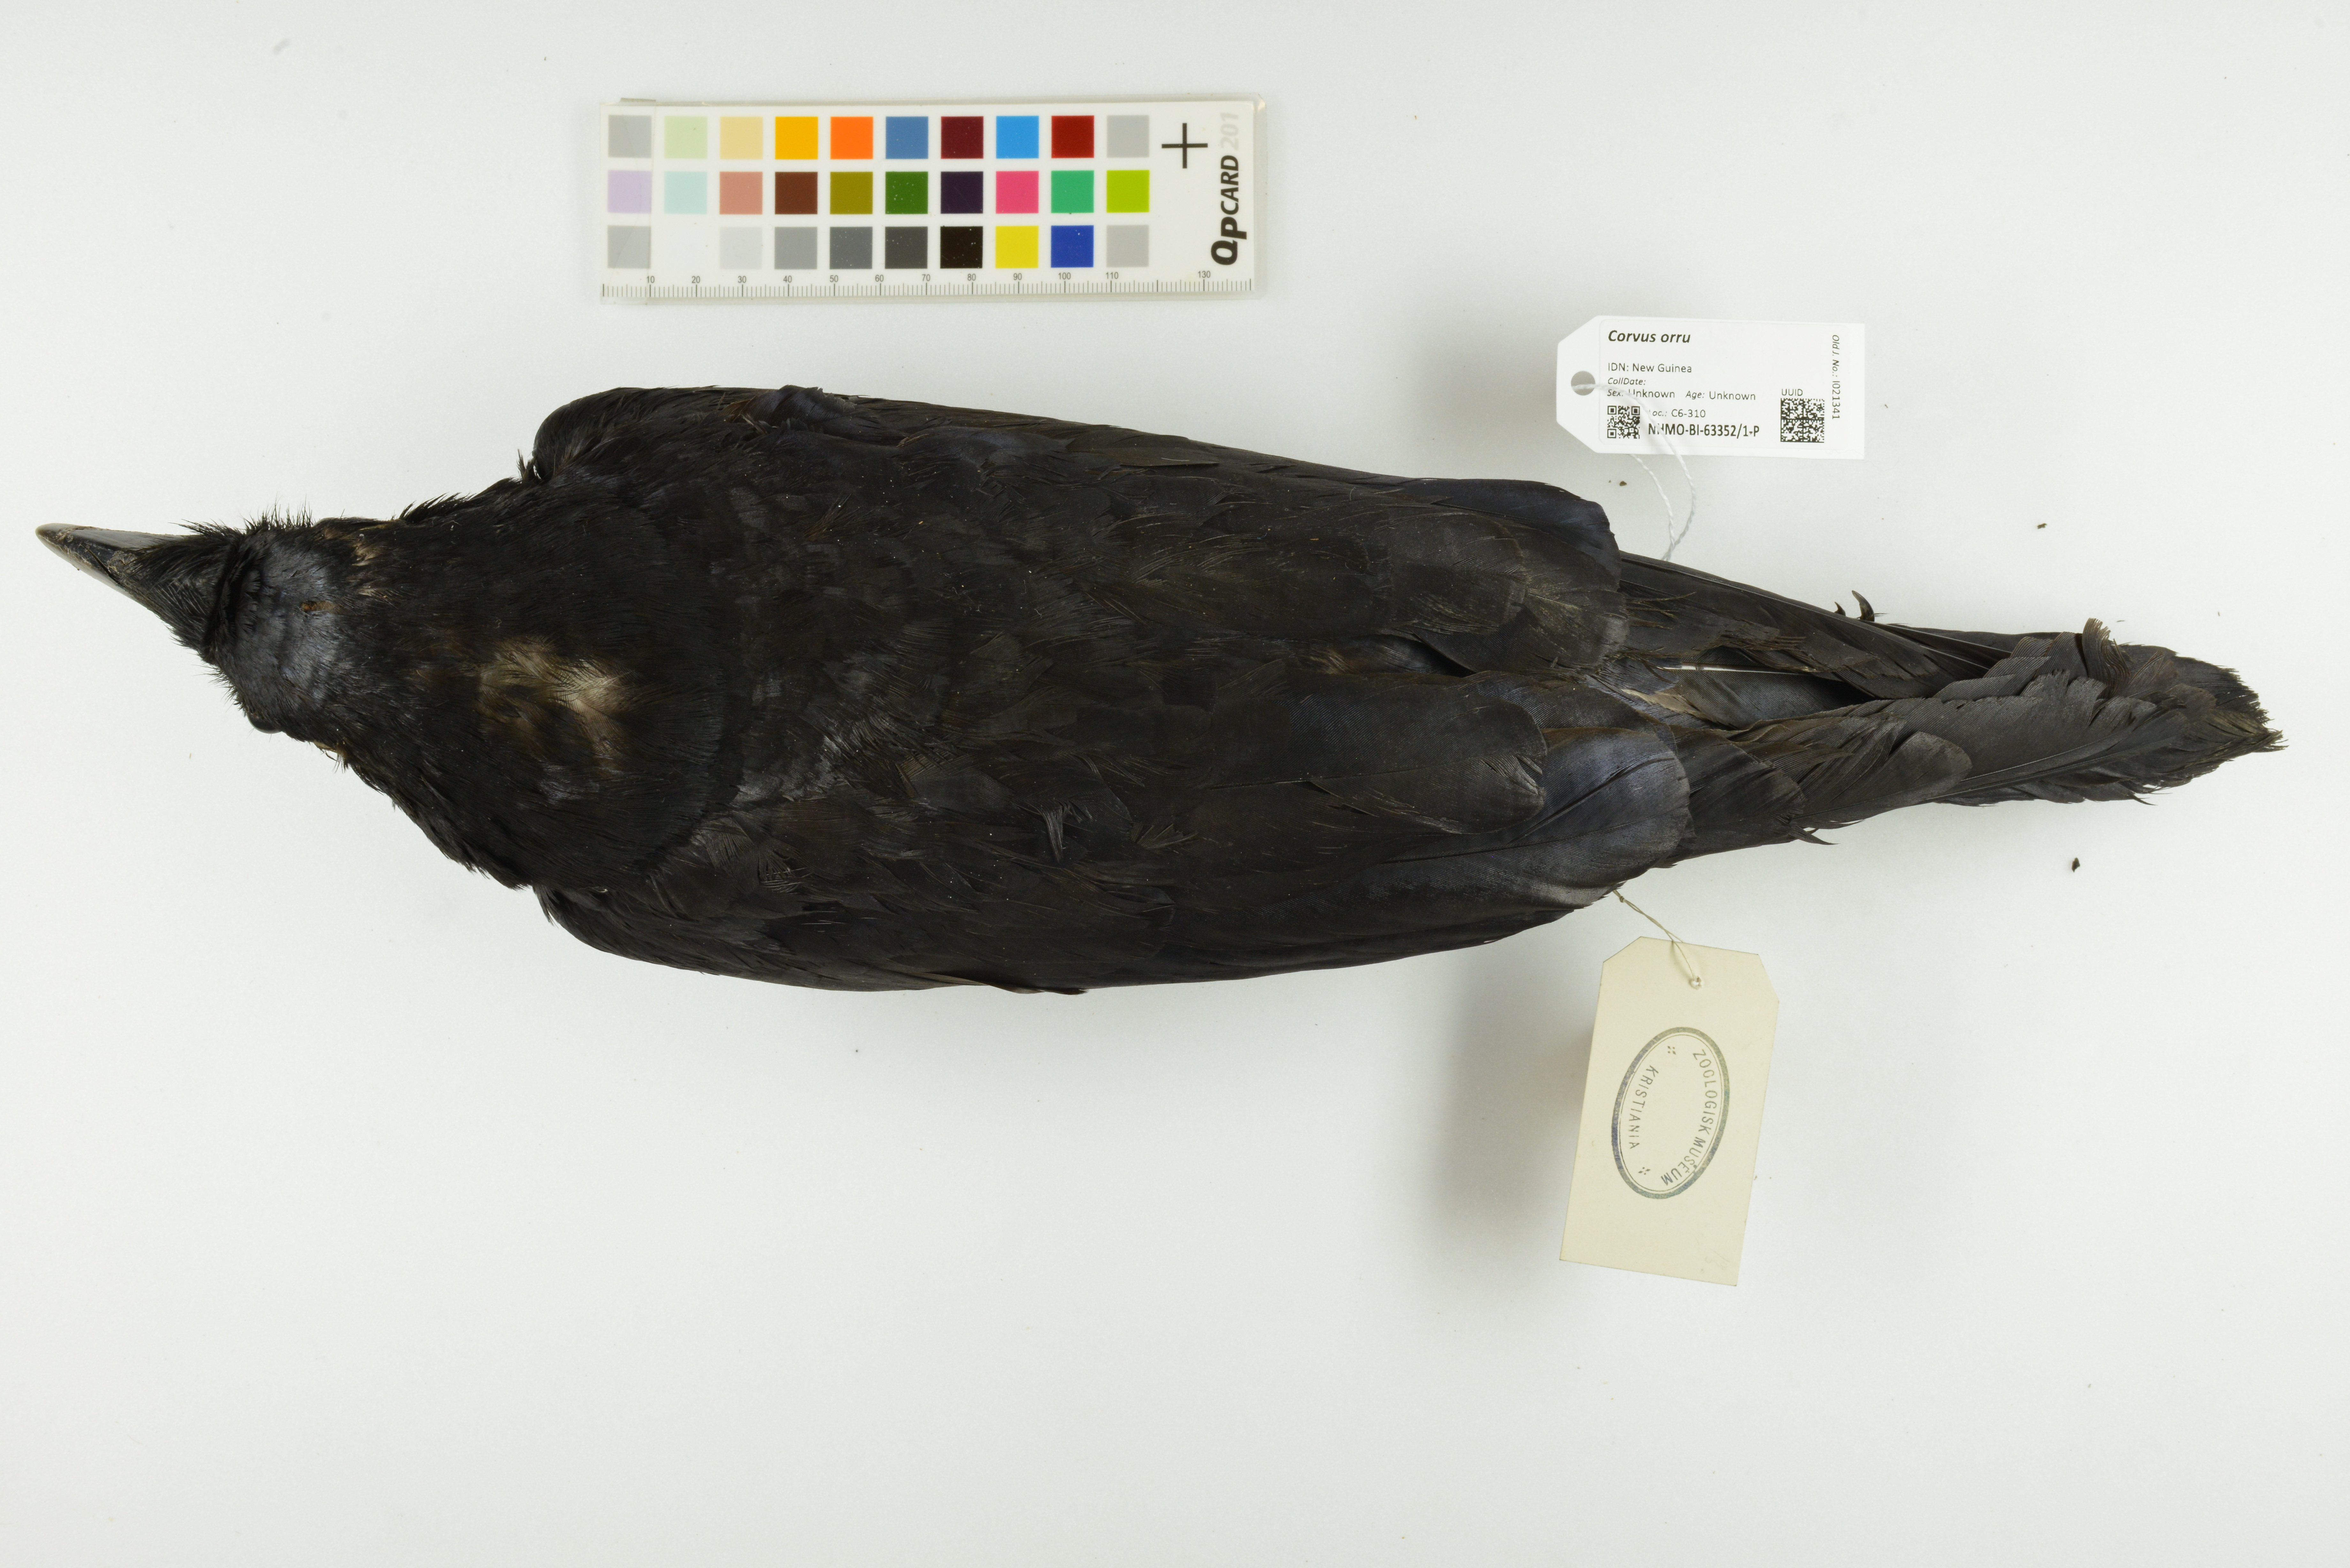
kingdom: Animalia
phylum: Chordata
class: Aves
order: Passeriformes
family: Corvidae
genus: Corvus
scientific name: Corvus orru
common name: Torresian crow
